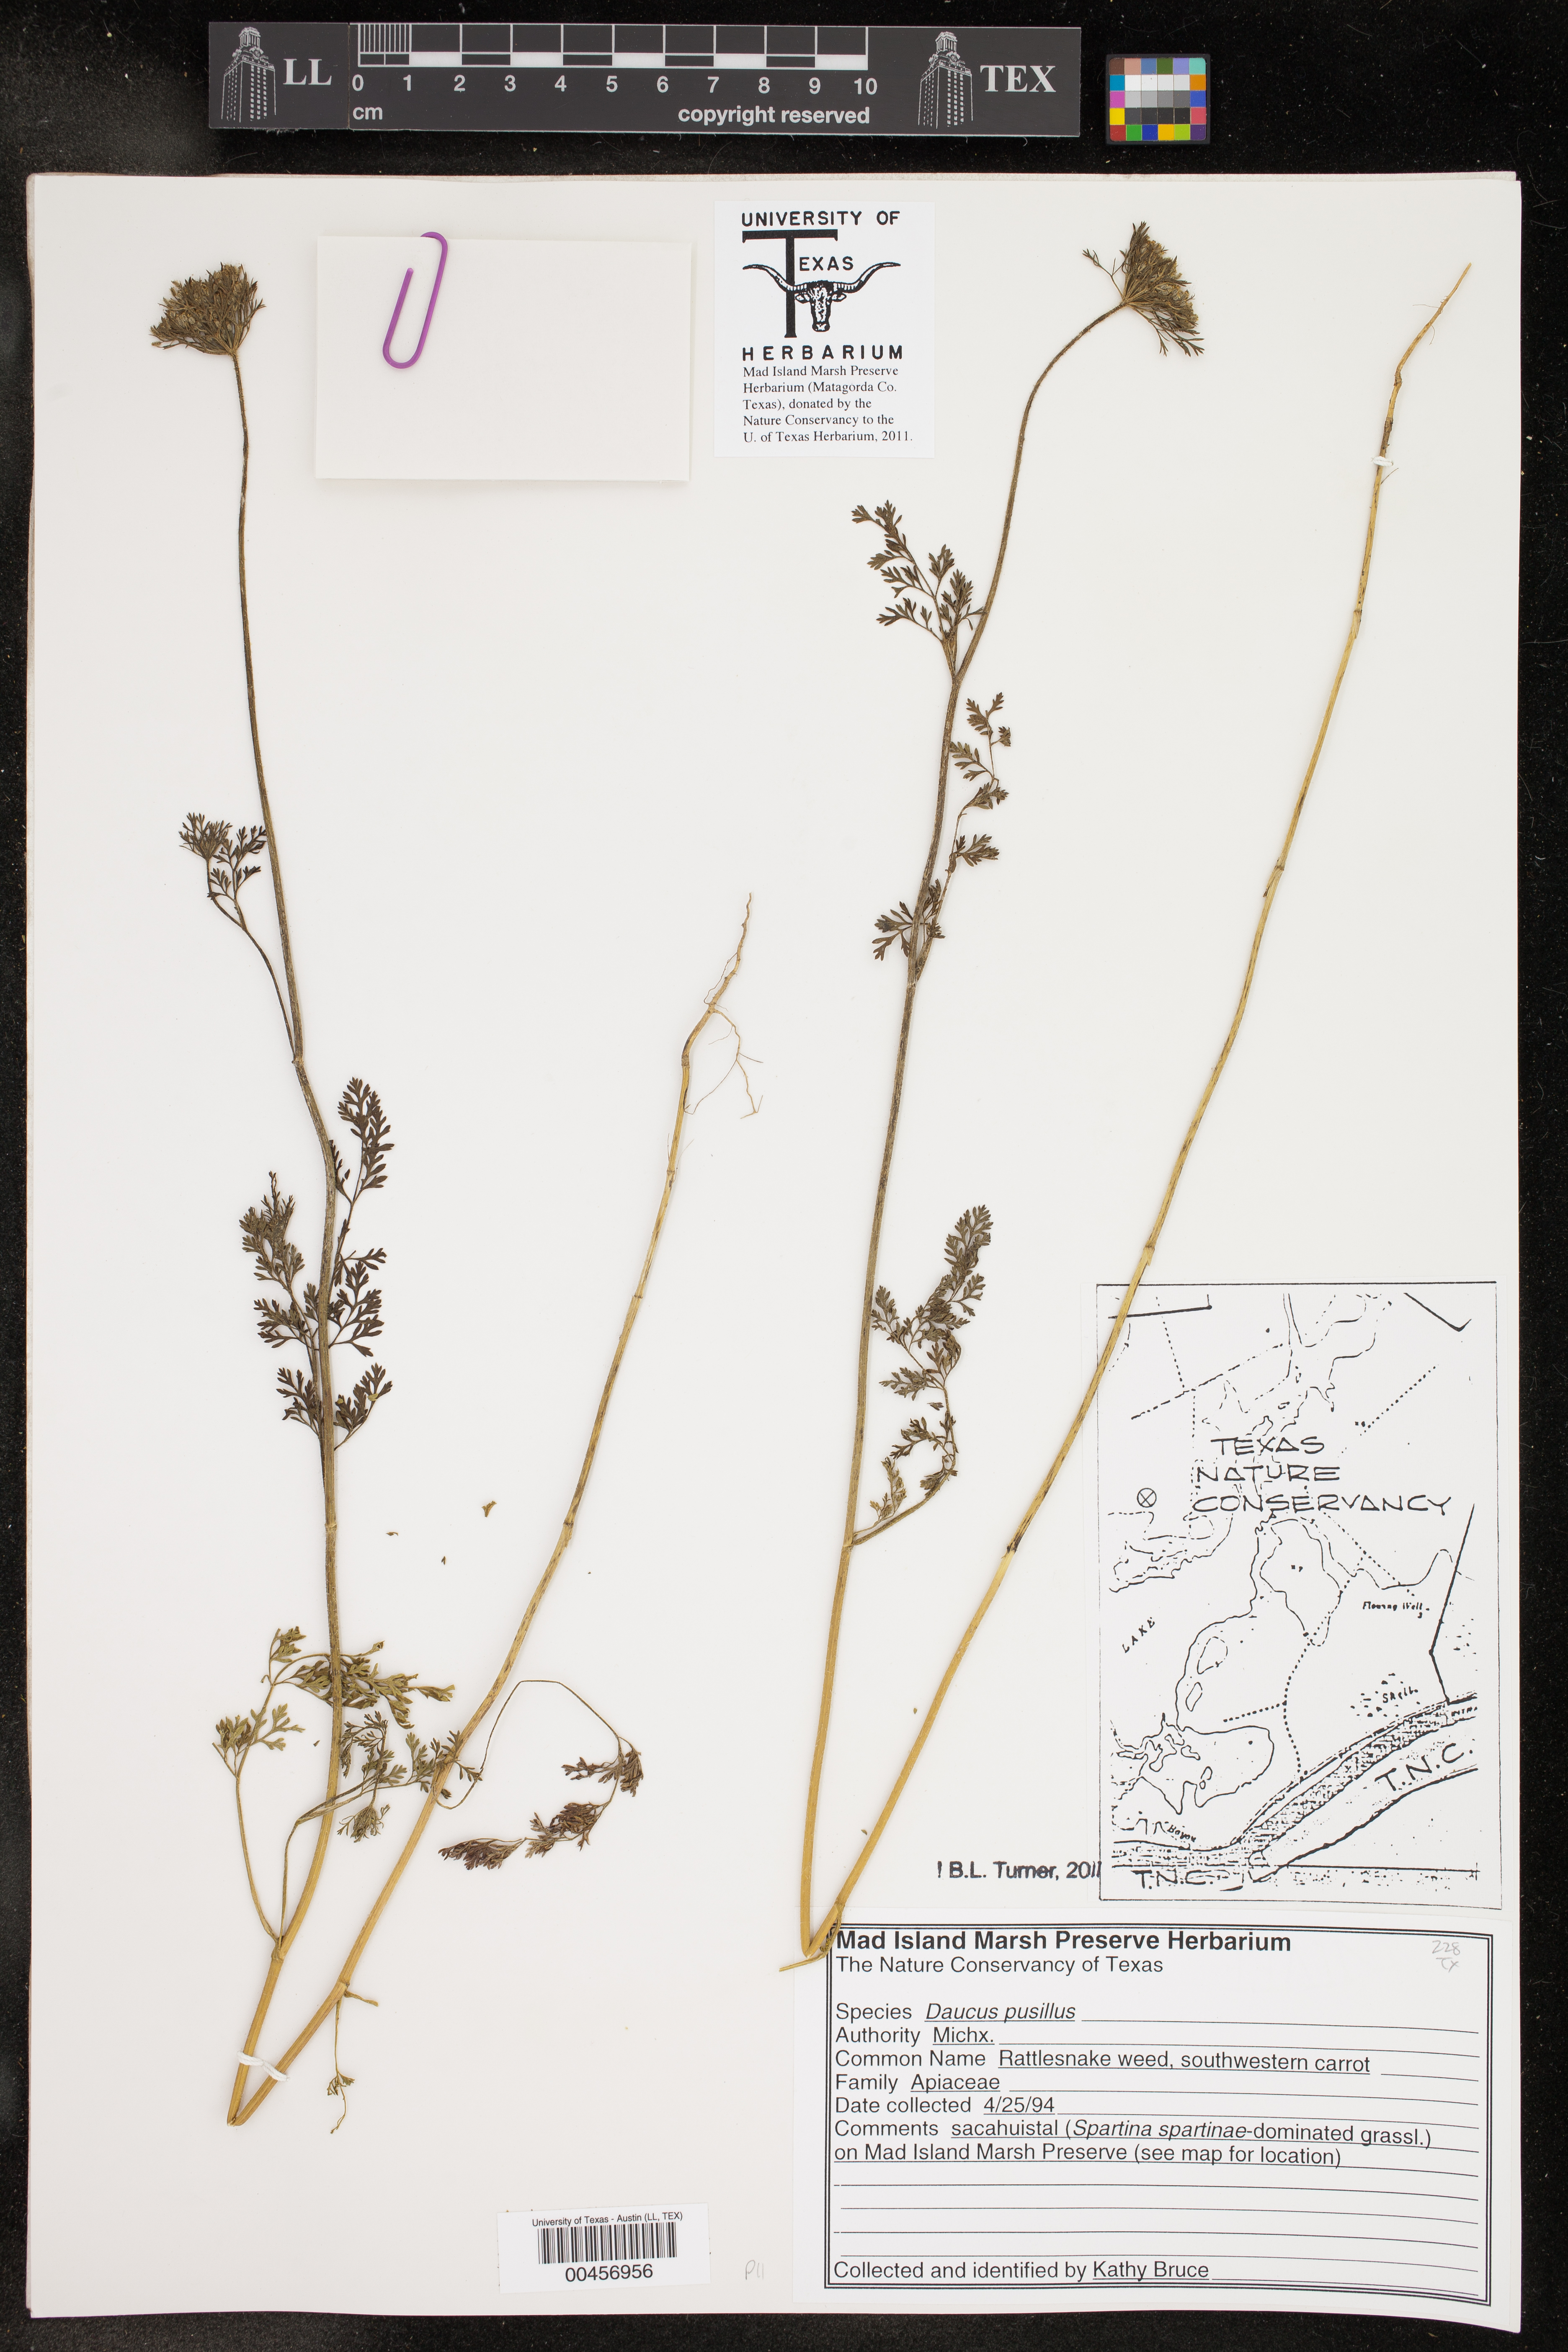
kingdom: Plantae
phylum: Tracheophyta
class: Magnoliopsida
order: Apiales
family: Apiaceae
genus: Daucus
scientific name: Daucus pusillus
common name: Southwest wild carrot
